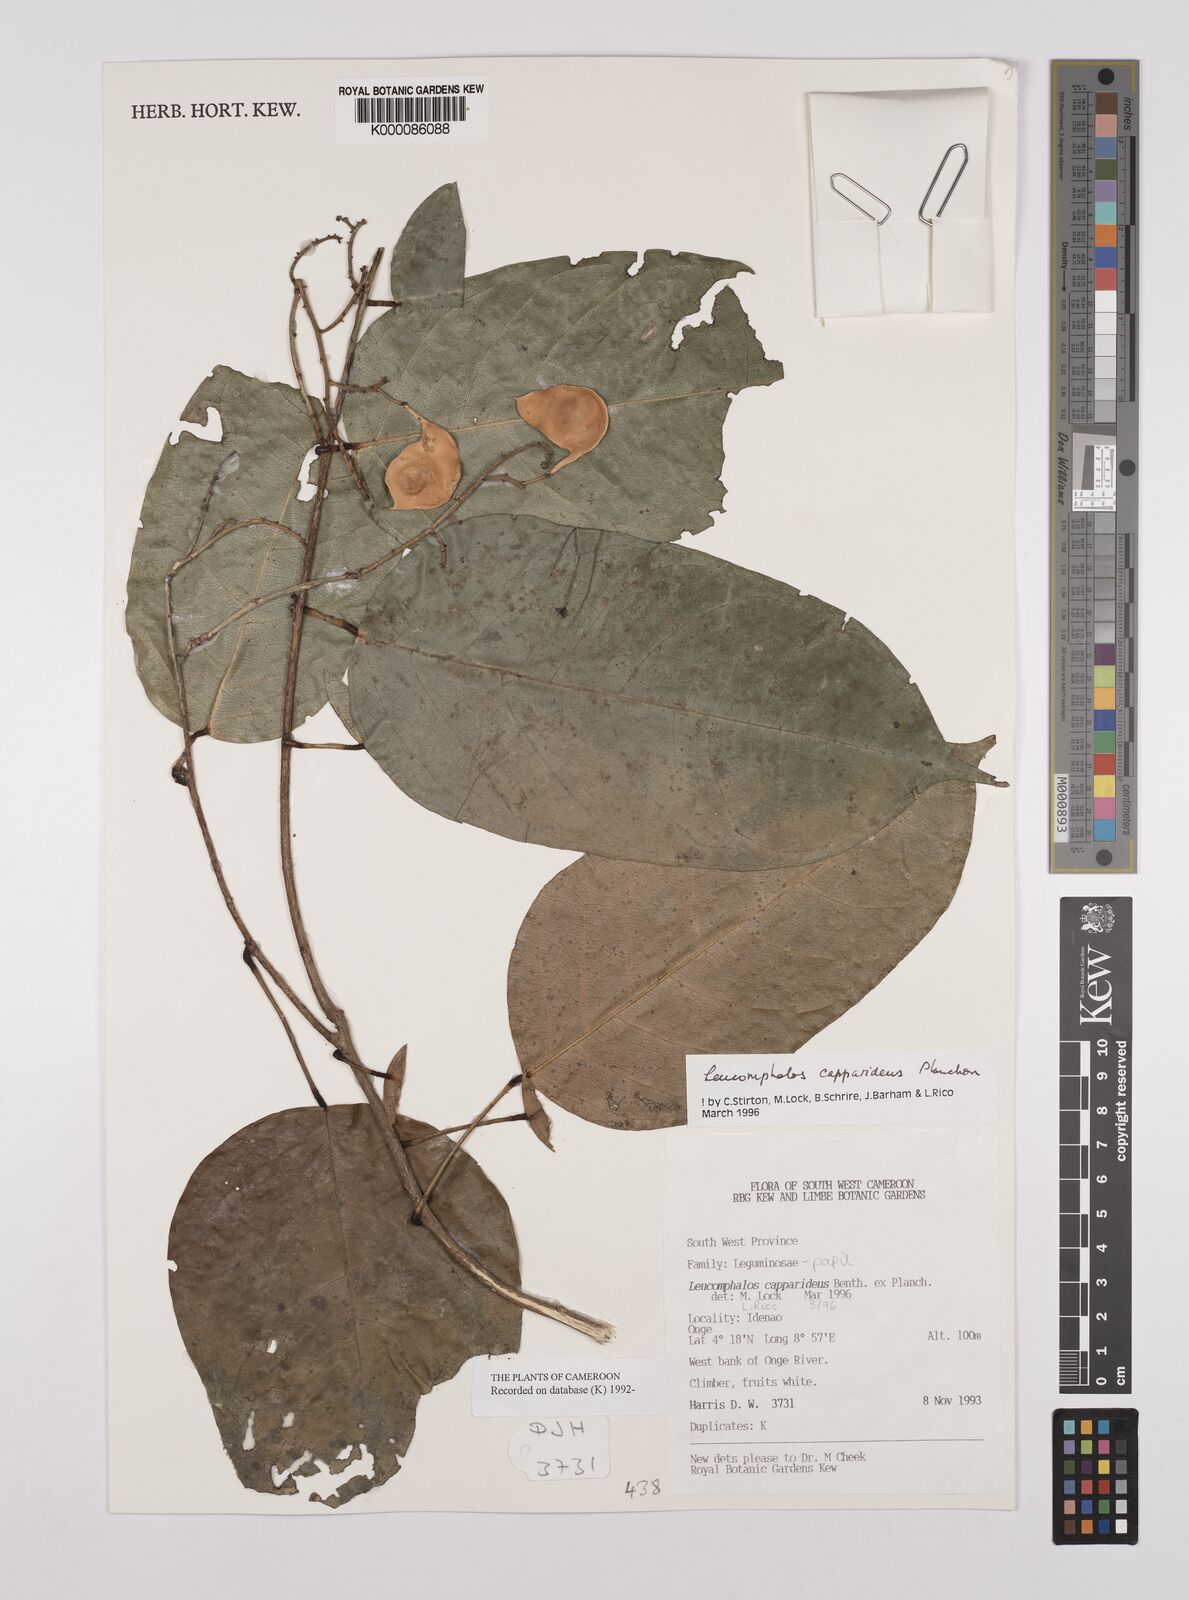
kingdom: Plantae
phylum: Tracheophyta
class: Magnoliopsida
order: Fabales
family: Fabaceae
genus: Leucomphalos
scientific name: Leucomphalos
